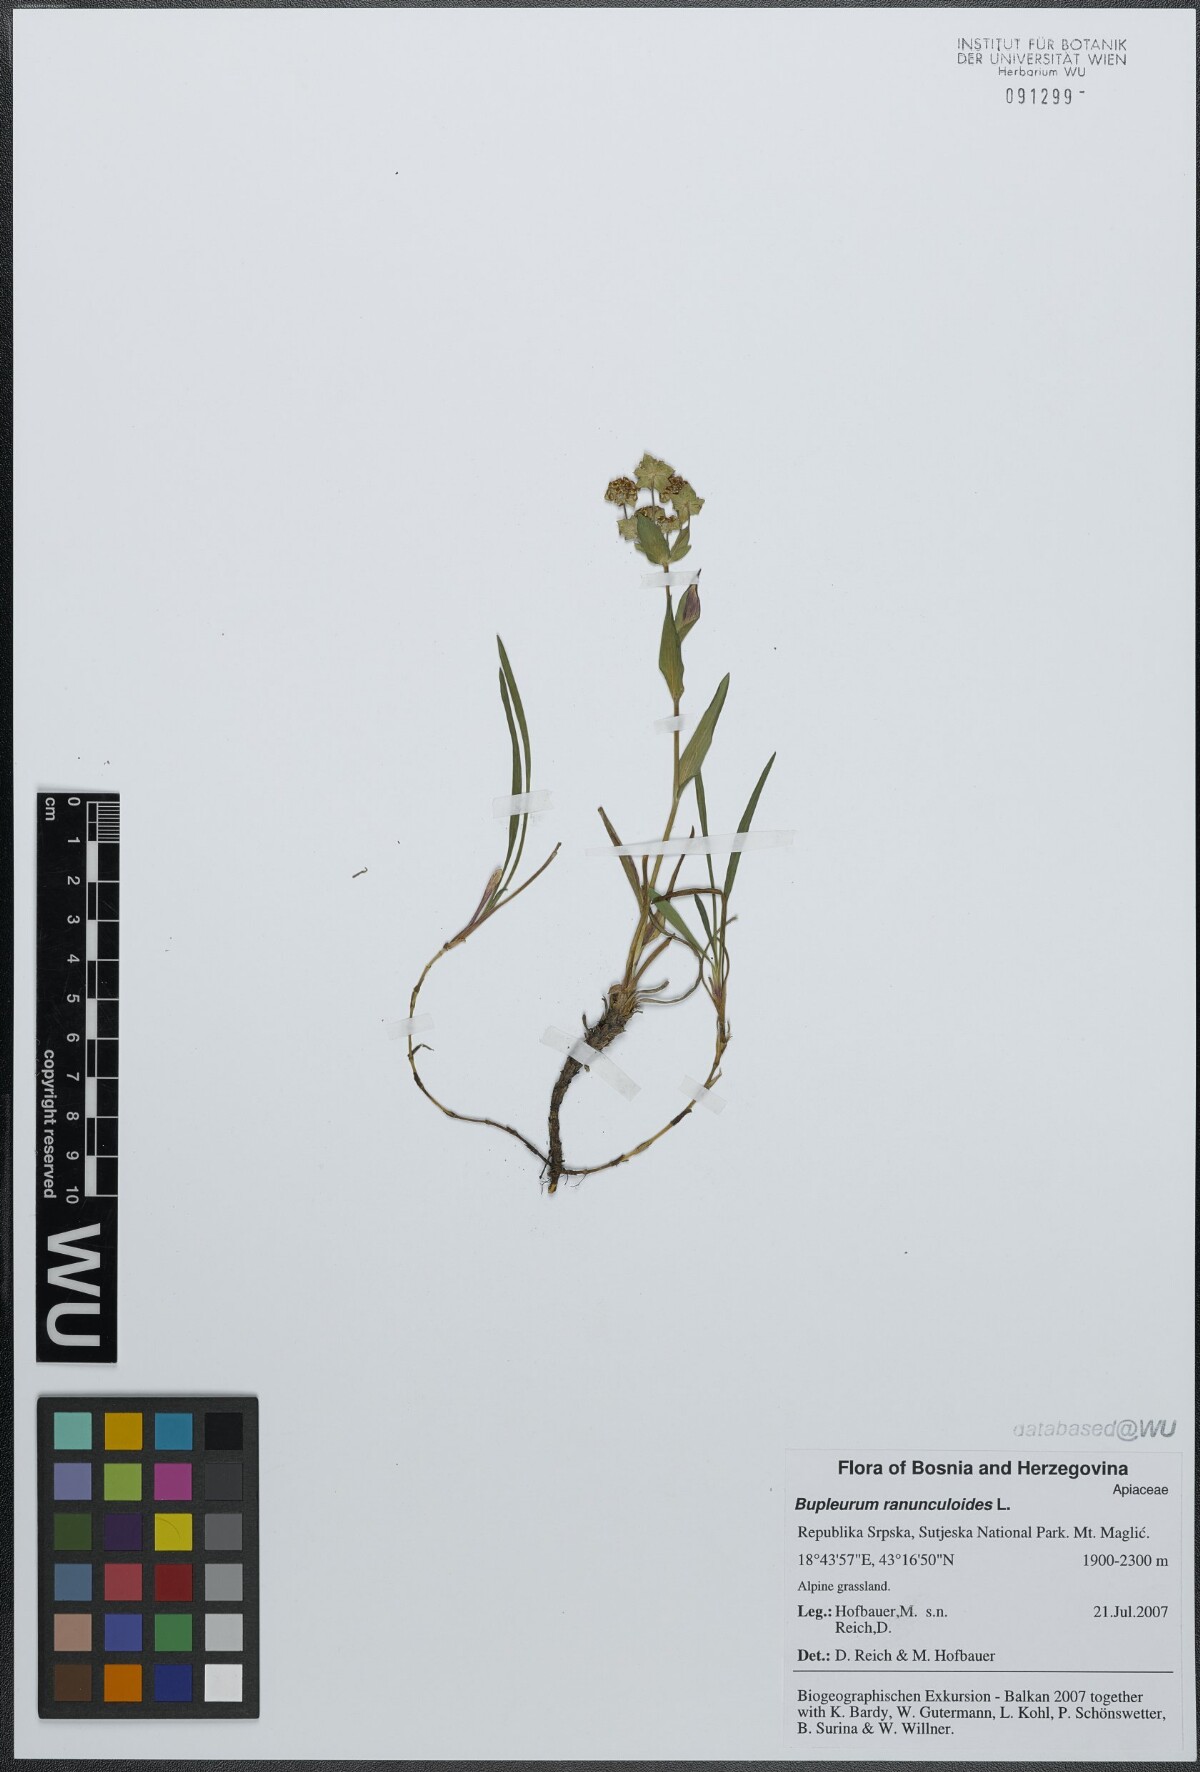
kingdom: Plantae
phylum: Tracheophyta
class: Magnoliopsida
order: Apiales
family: Apiaceae
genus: Bupleurum
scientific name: Bupleurum ranunculoides
